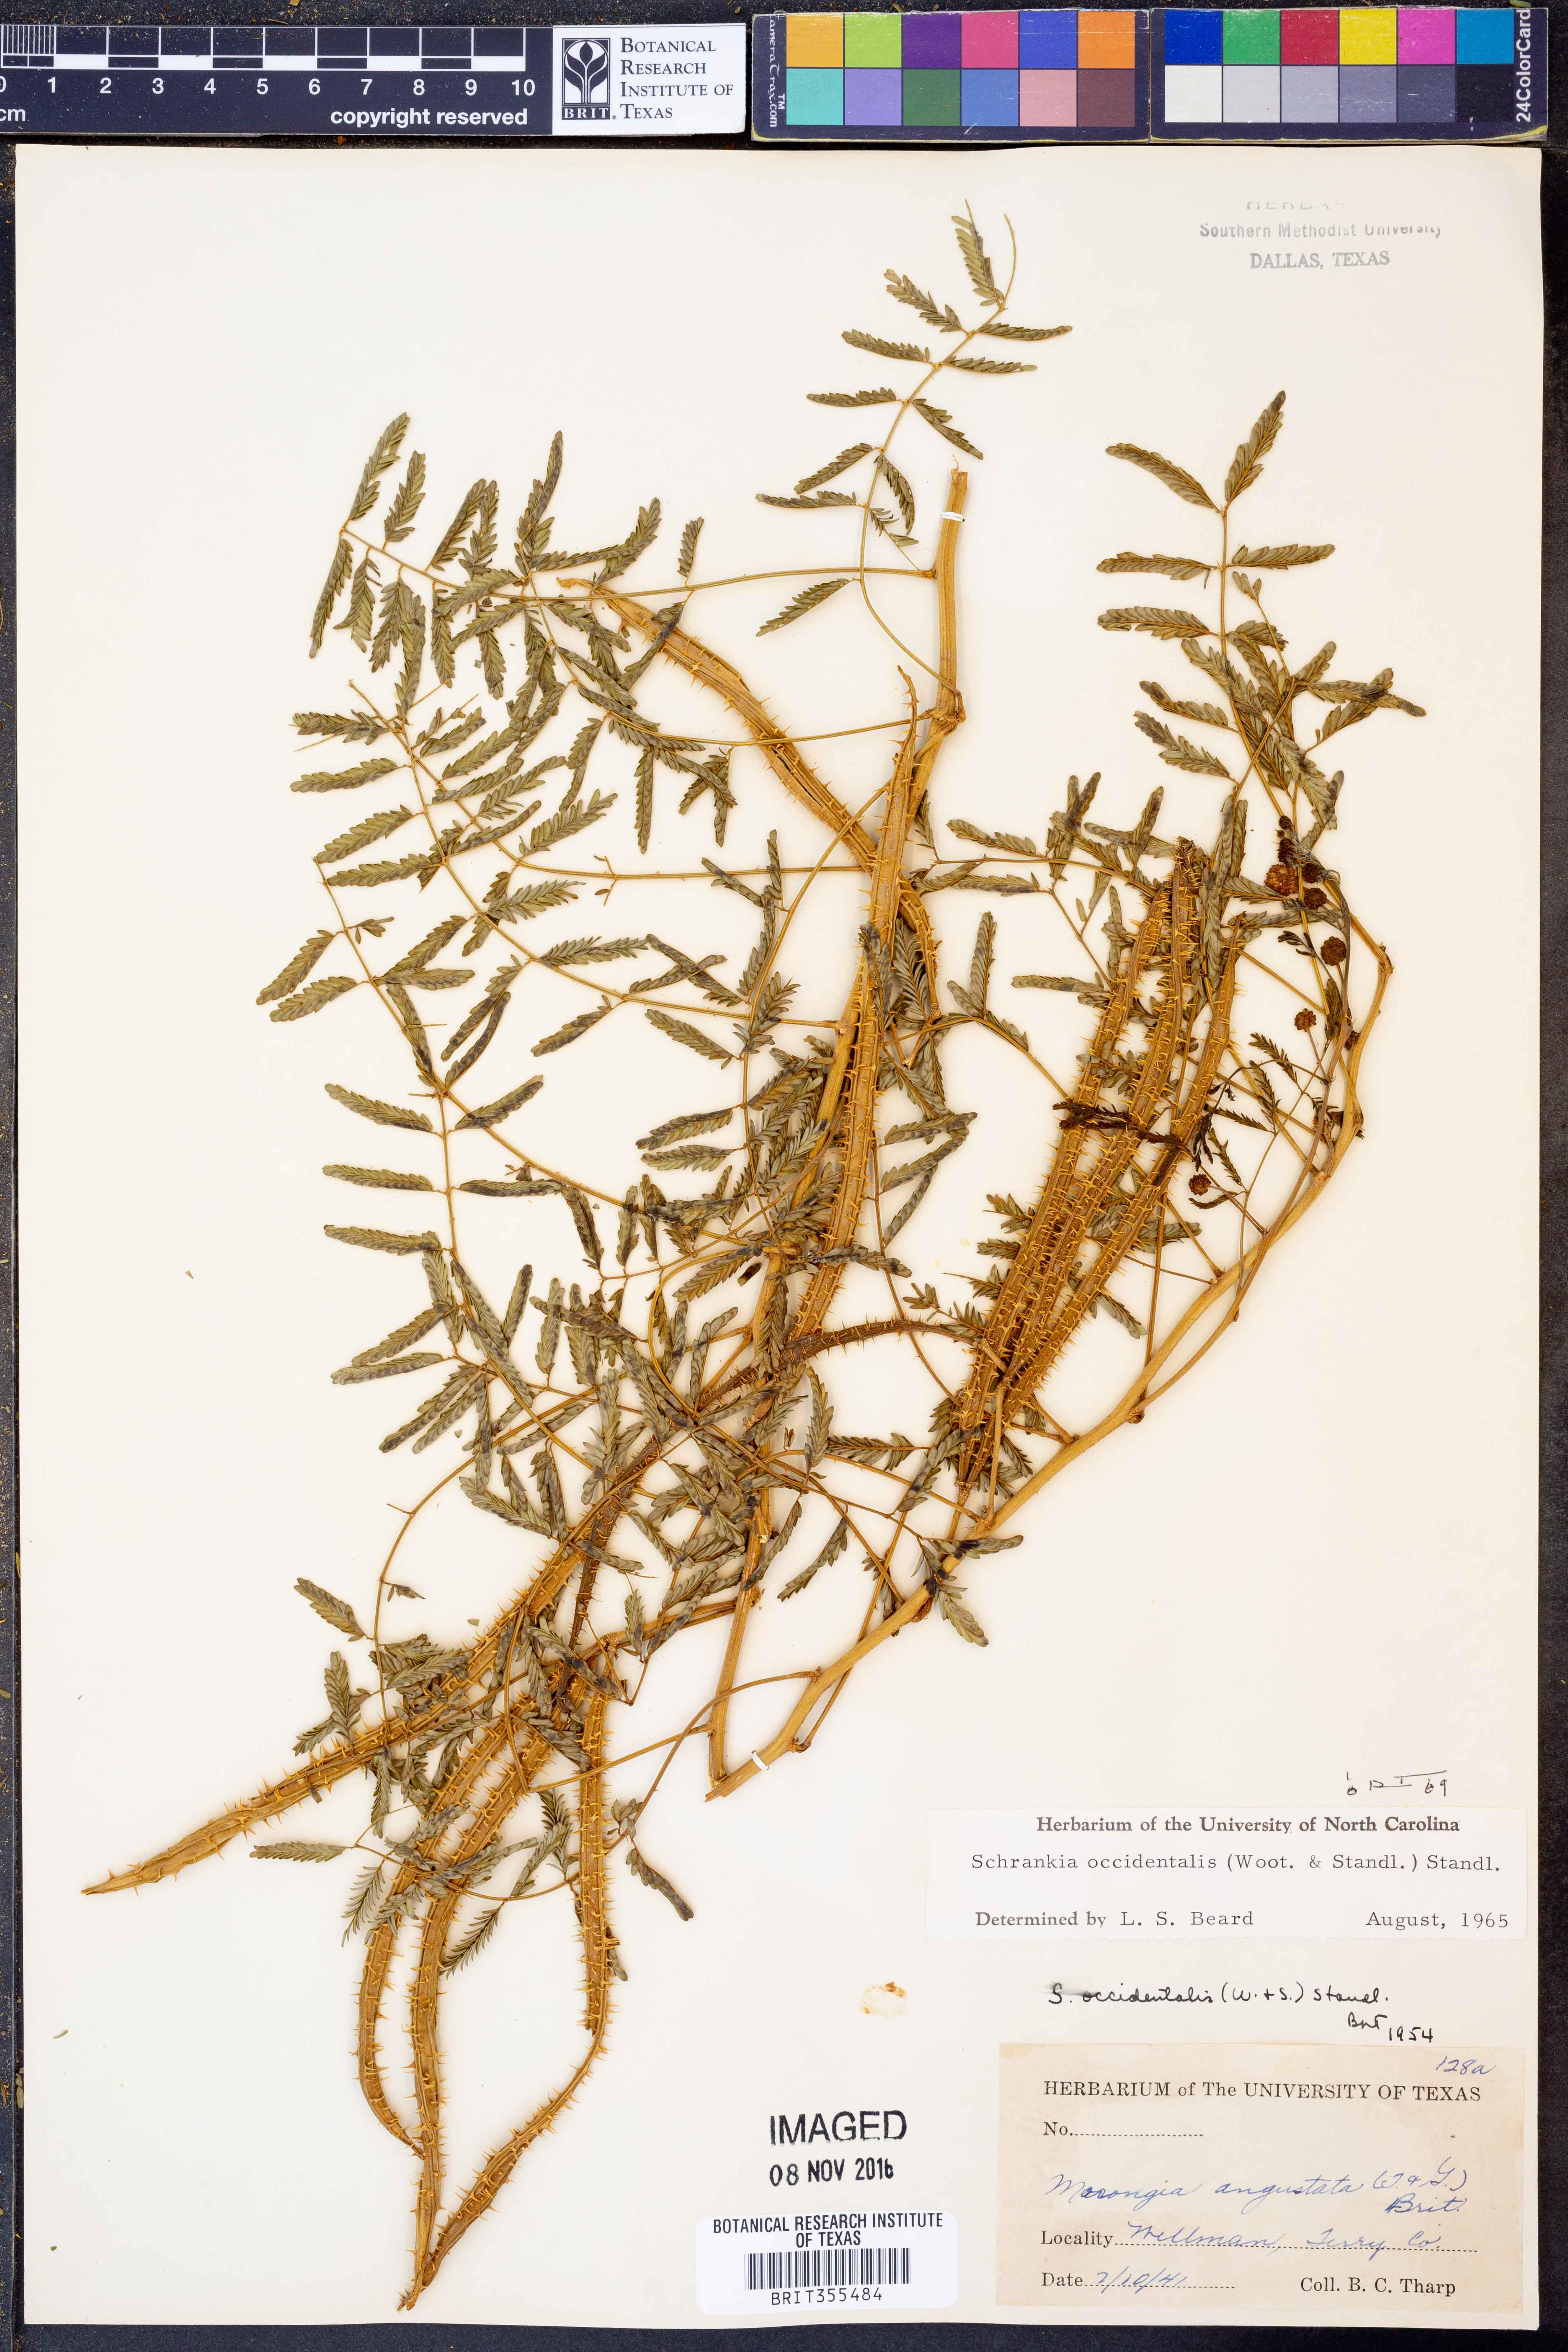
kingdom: Plantae
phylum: Tracheophyta
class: Magnoliopsida
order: Fabales
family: Fabaceae
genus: Mimosa
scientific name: Mimosa quadrivalvis
